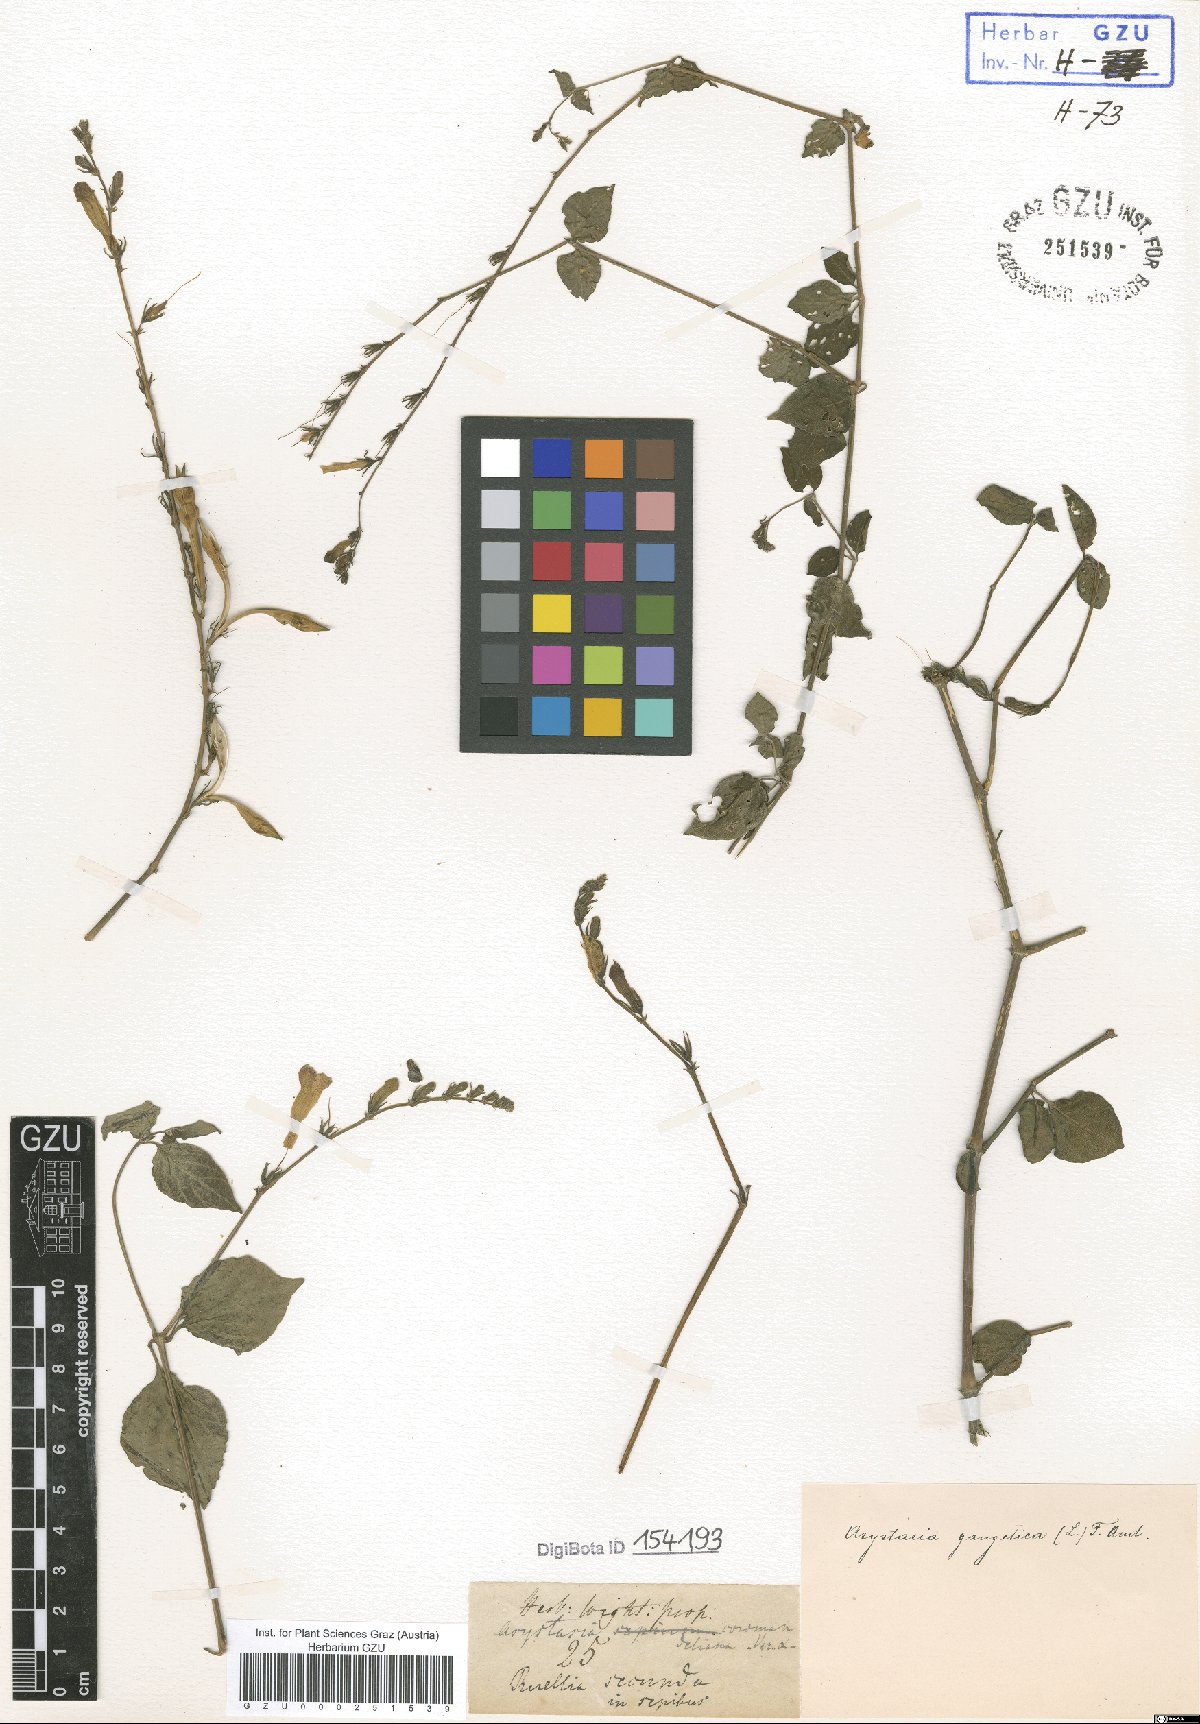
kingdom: Plantae
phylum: Tracheophyta
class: Magnoliopsida
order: Lamiales
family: Acanthaceae
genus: Asystasia
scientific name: Asystasia gangetica
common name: Chinese violet
